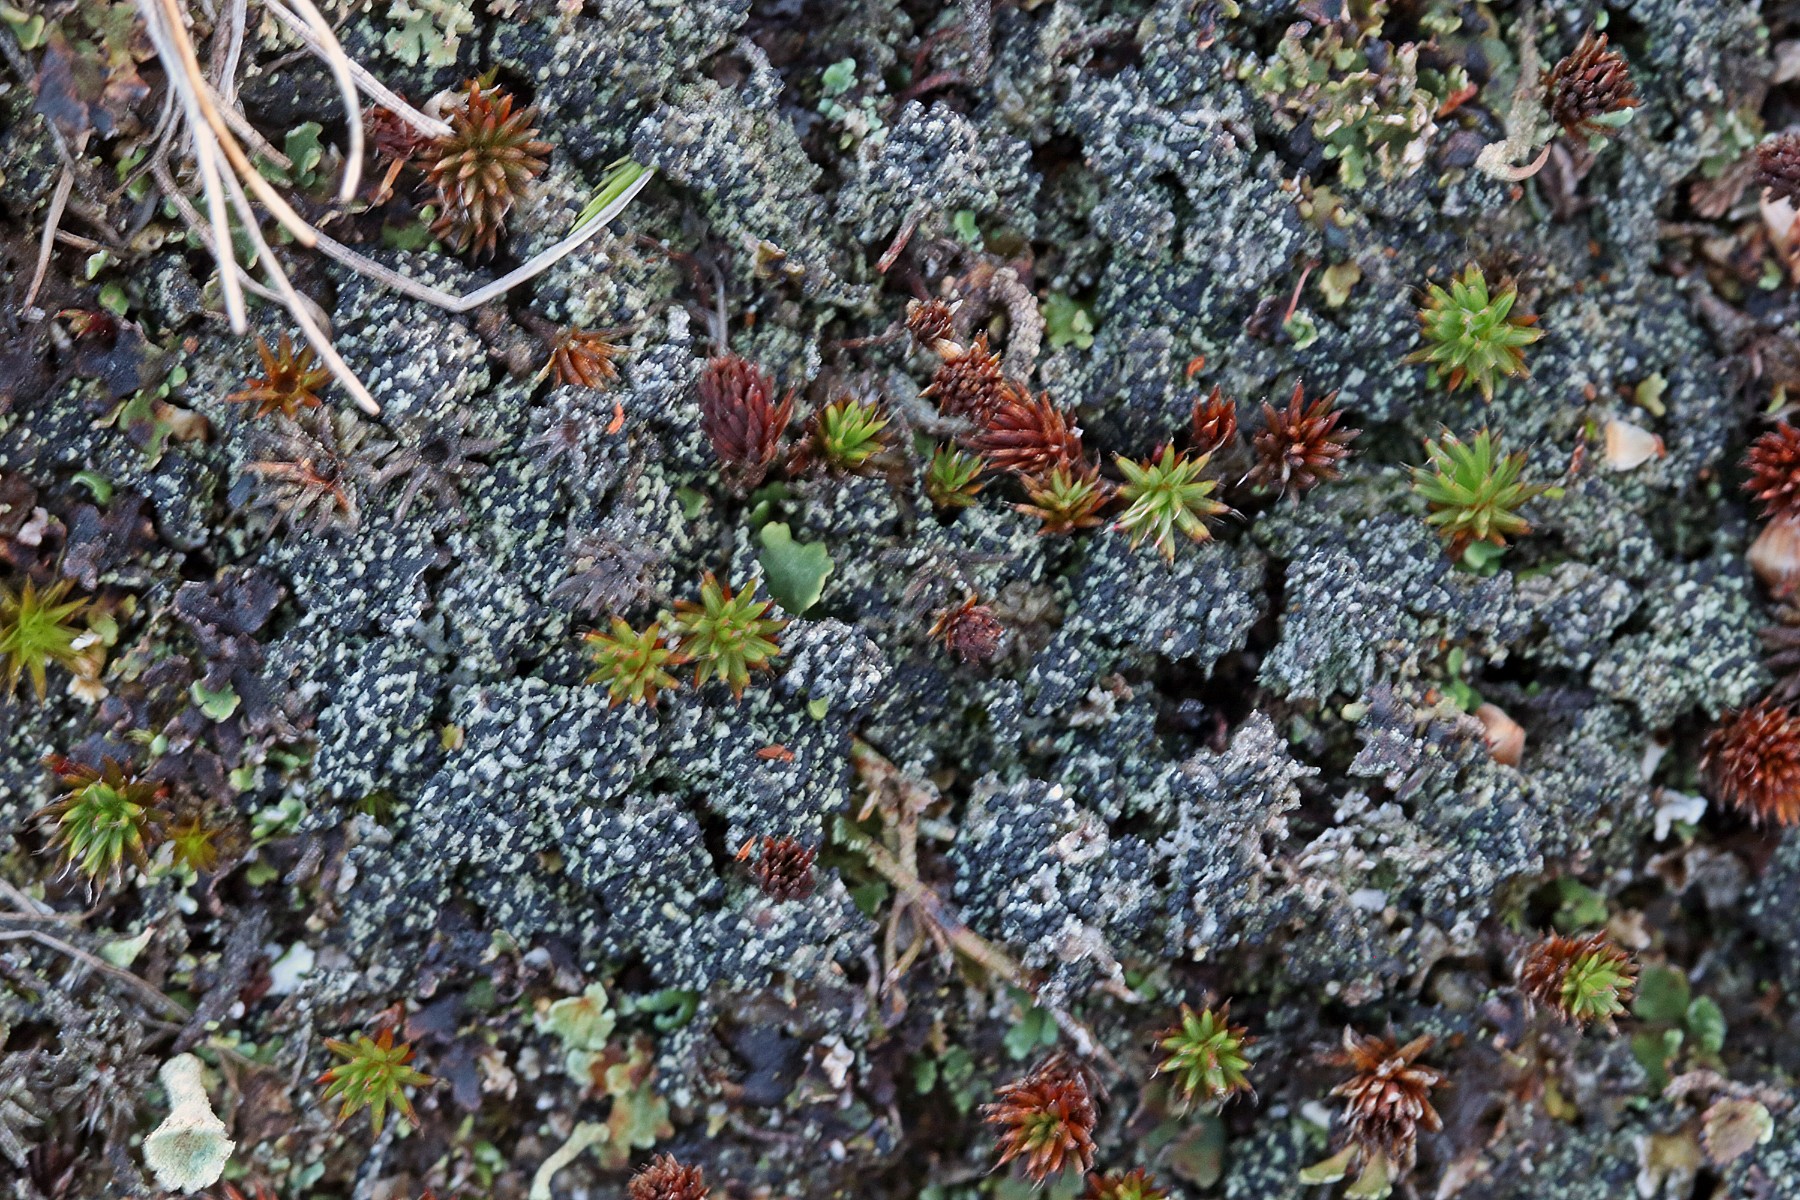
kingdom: Fungi
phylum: Ascomycota
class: Lecanoromycetes
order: Lecanorales
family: Byssolomataceae
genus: Micarea
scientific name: Micarea lignaria
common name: tørve-knaplav
